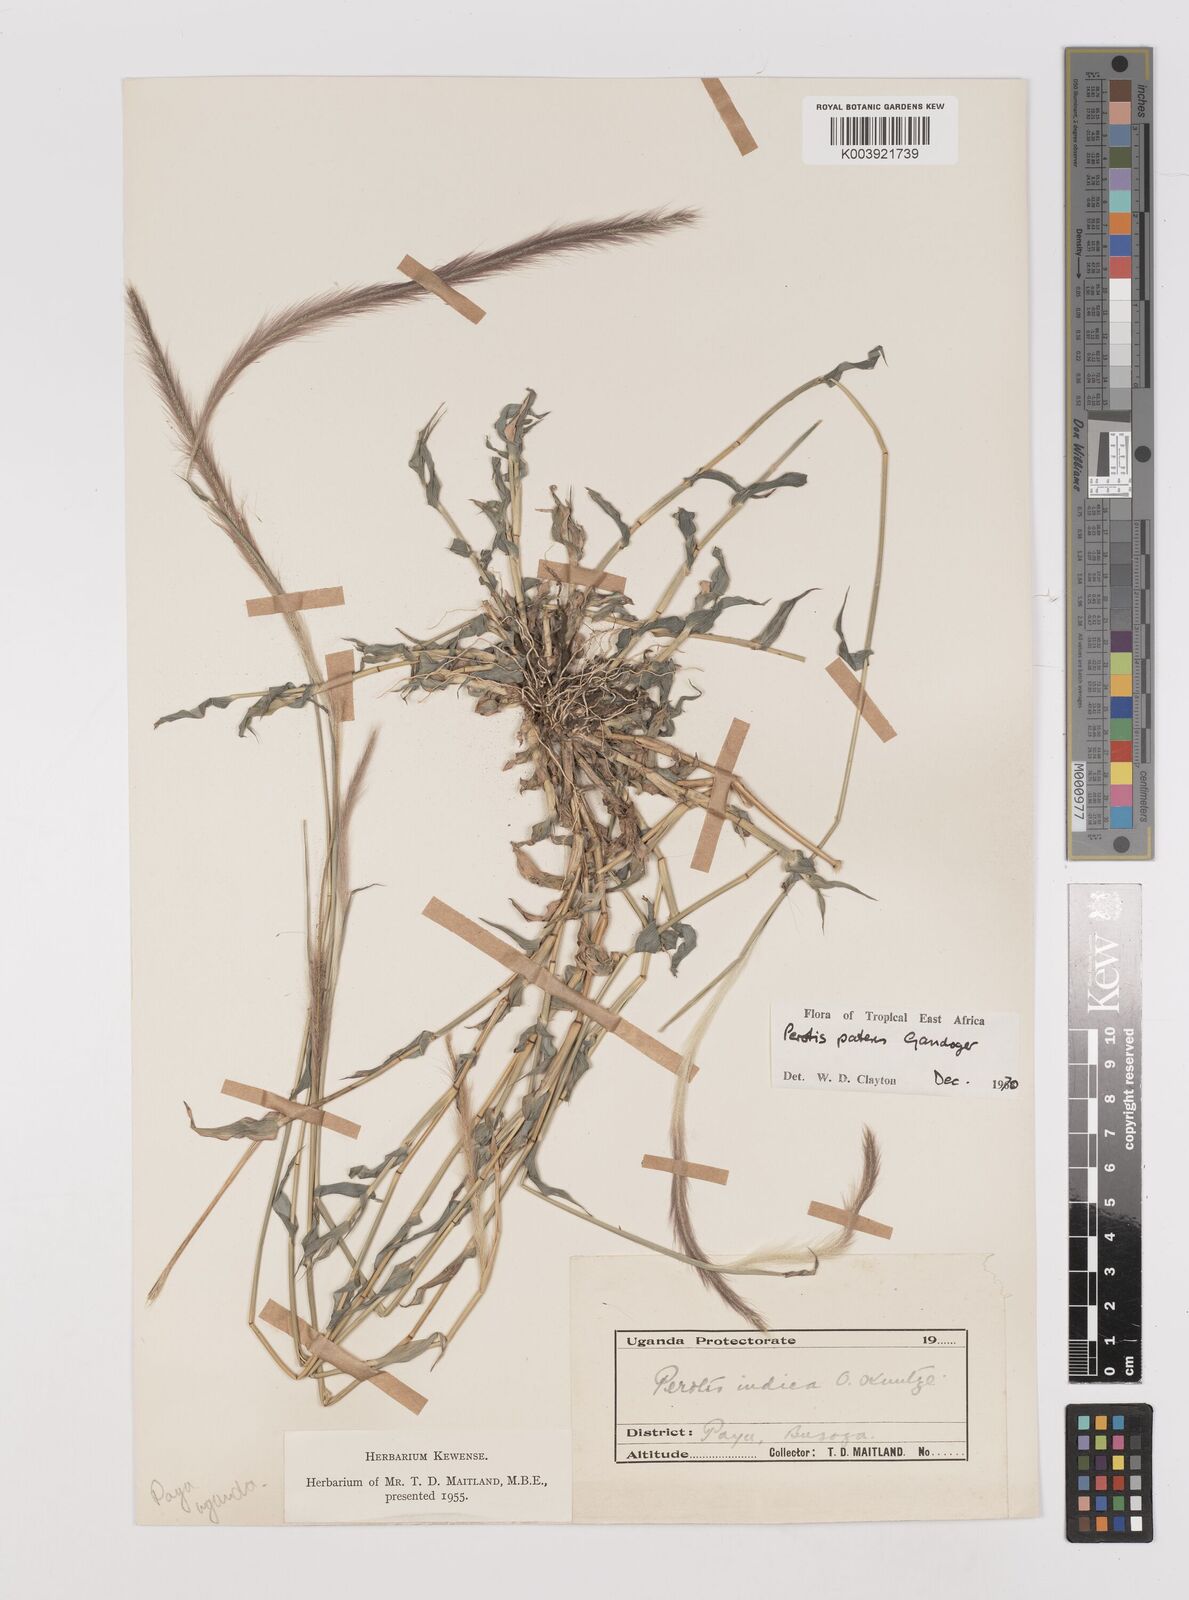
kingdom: Plantae
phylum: Tracheophyta
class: Liliopsida
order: Poales
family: Poaceae
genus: Perotis
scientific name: Perotis patens
